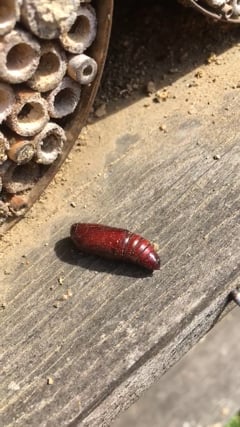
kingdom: Animalia
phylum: Arthropoda
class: Insecta
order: Lepidoptera
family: Noctuidae
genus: Noctua
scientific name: Noctua pronuba
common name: Large yellow underwing
